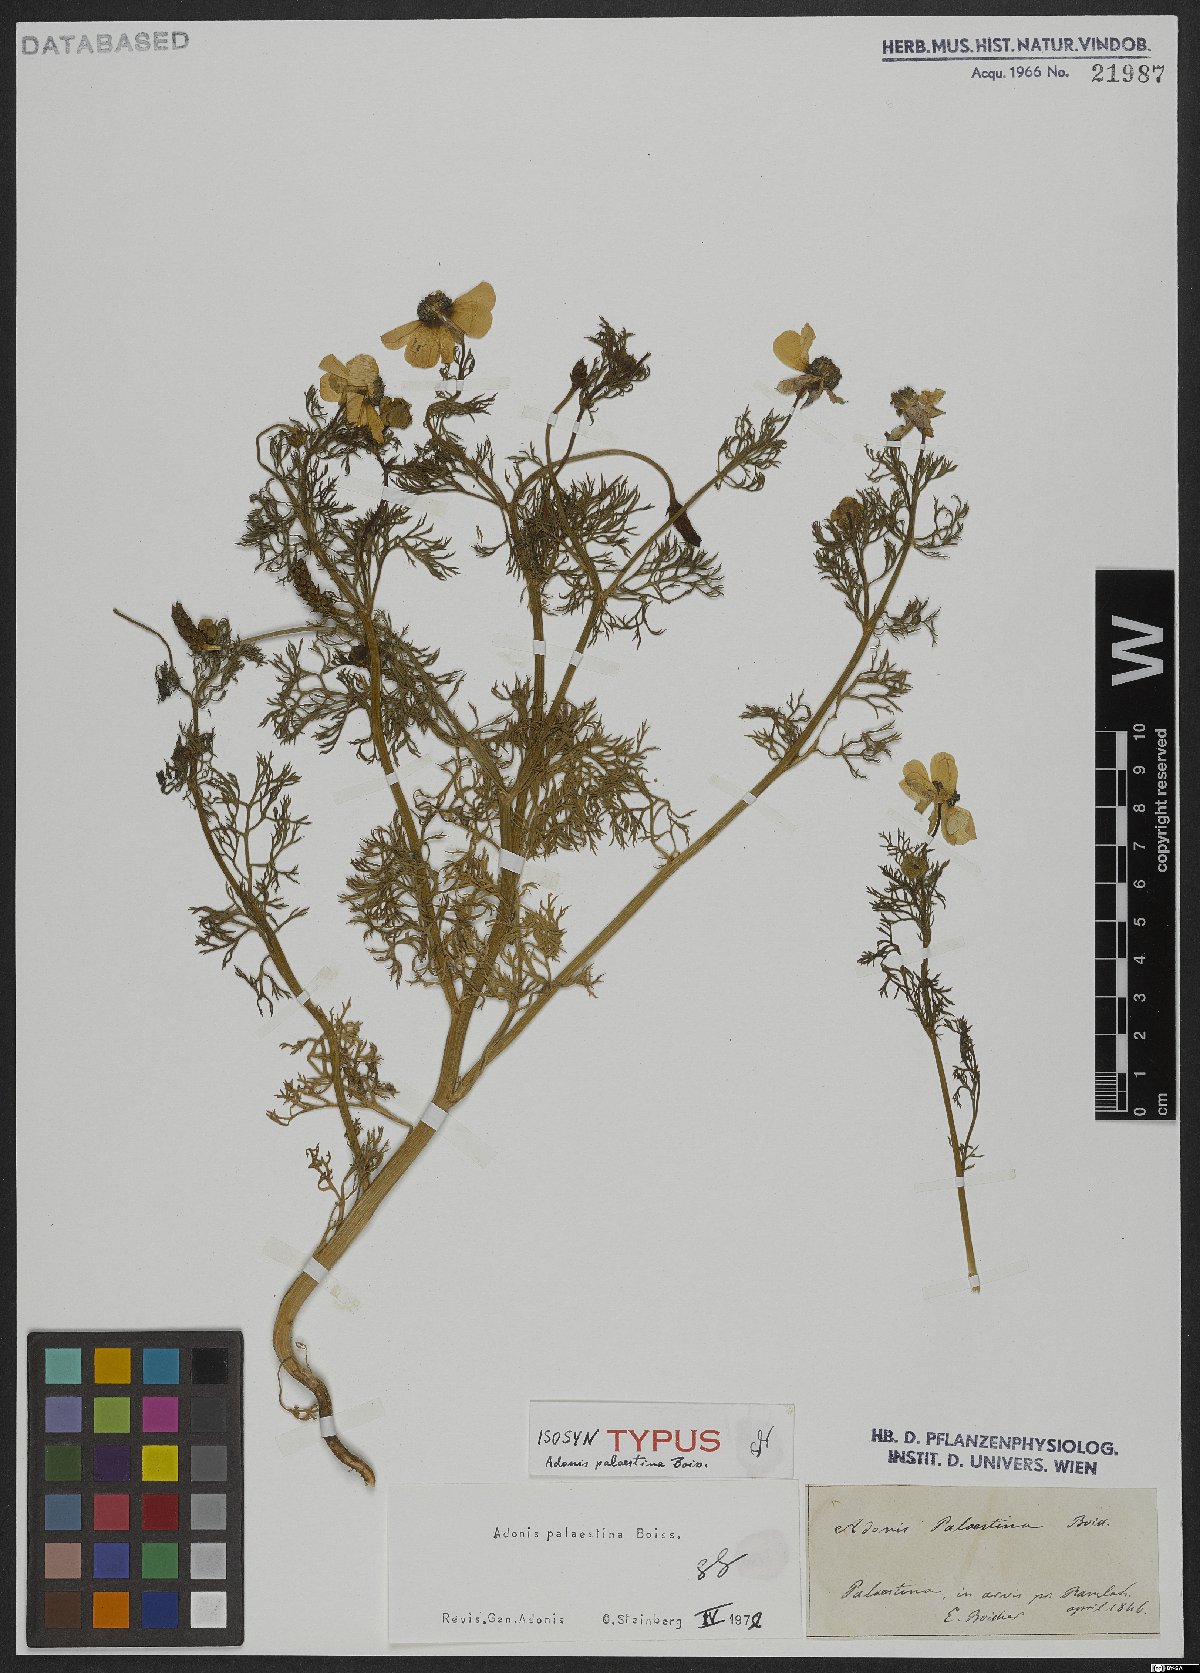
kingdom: Plantae
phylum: Tracheophyta
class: Magnoliopsida
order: Ranunculales
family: Ranunculaceae
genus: Adonis
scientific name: Adonis palaestina
